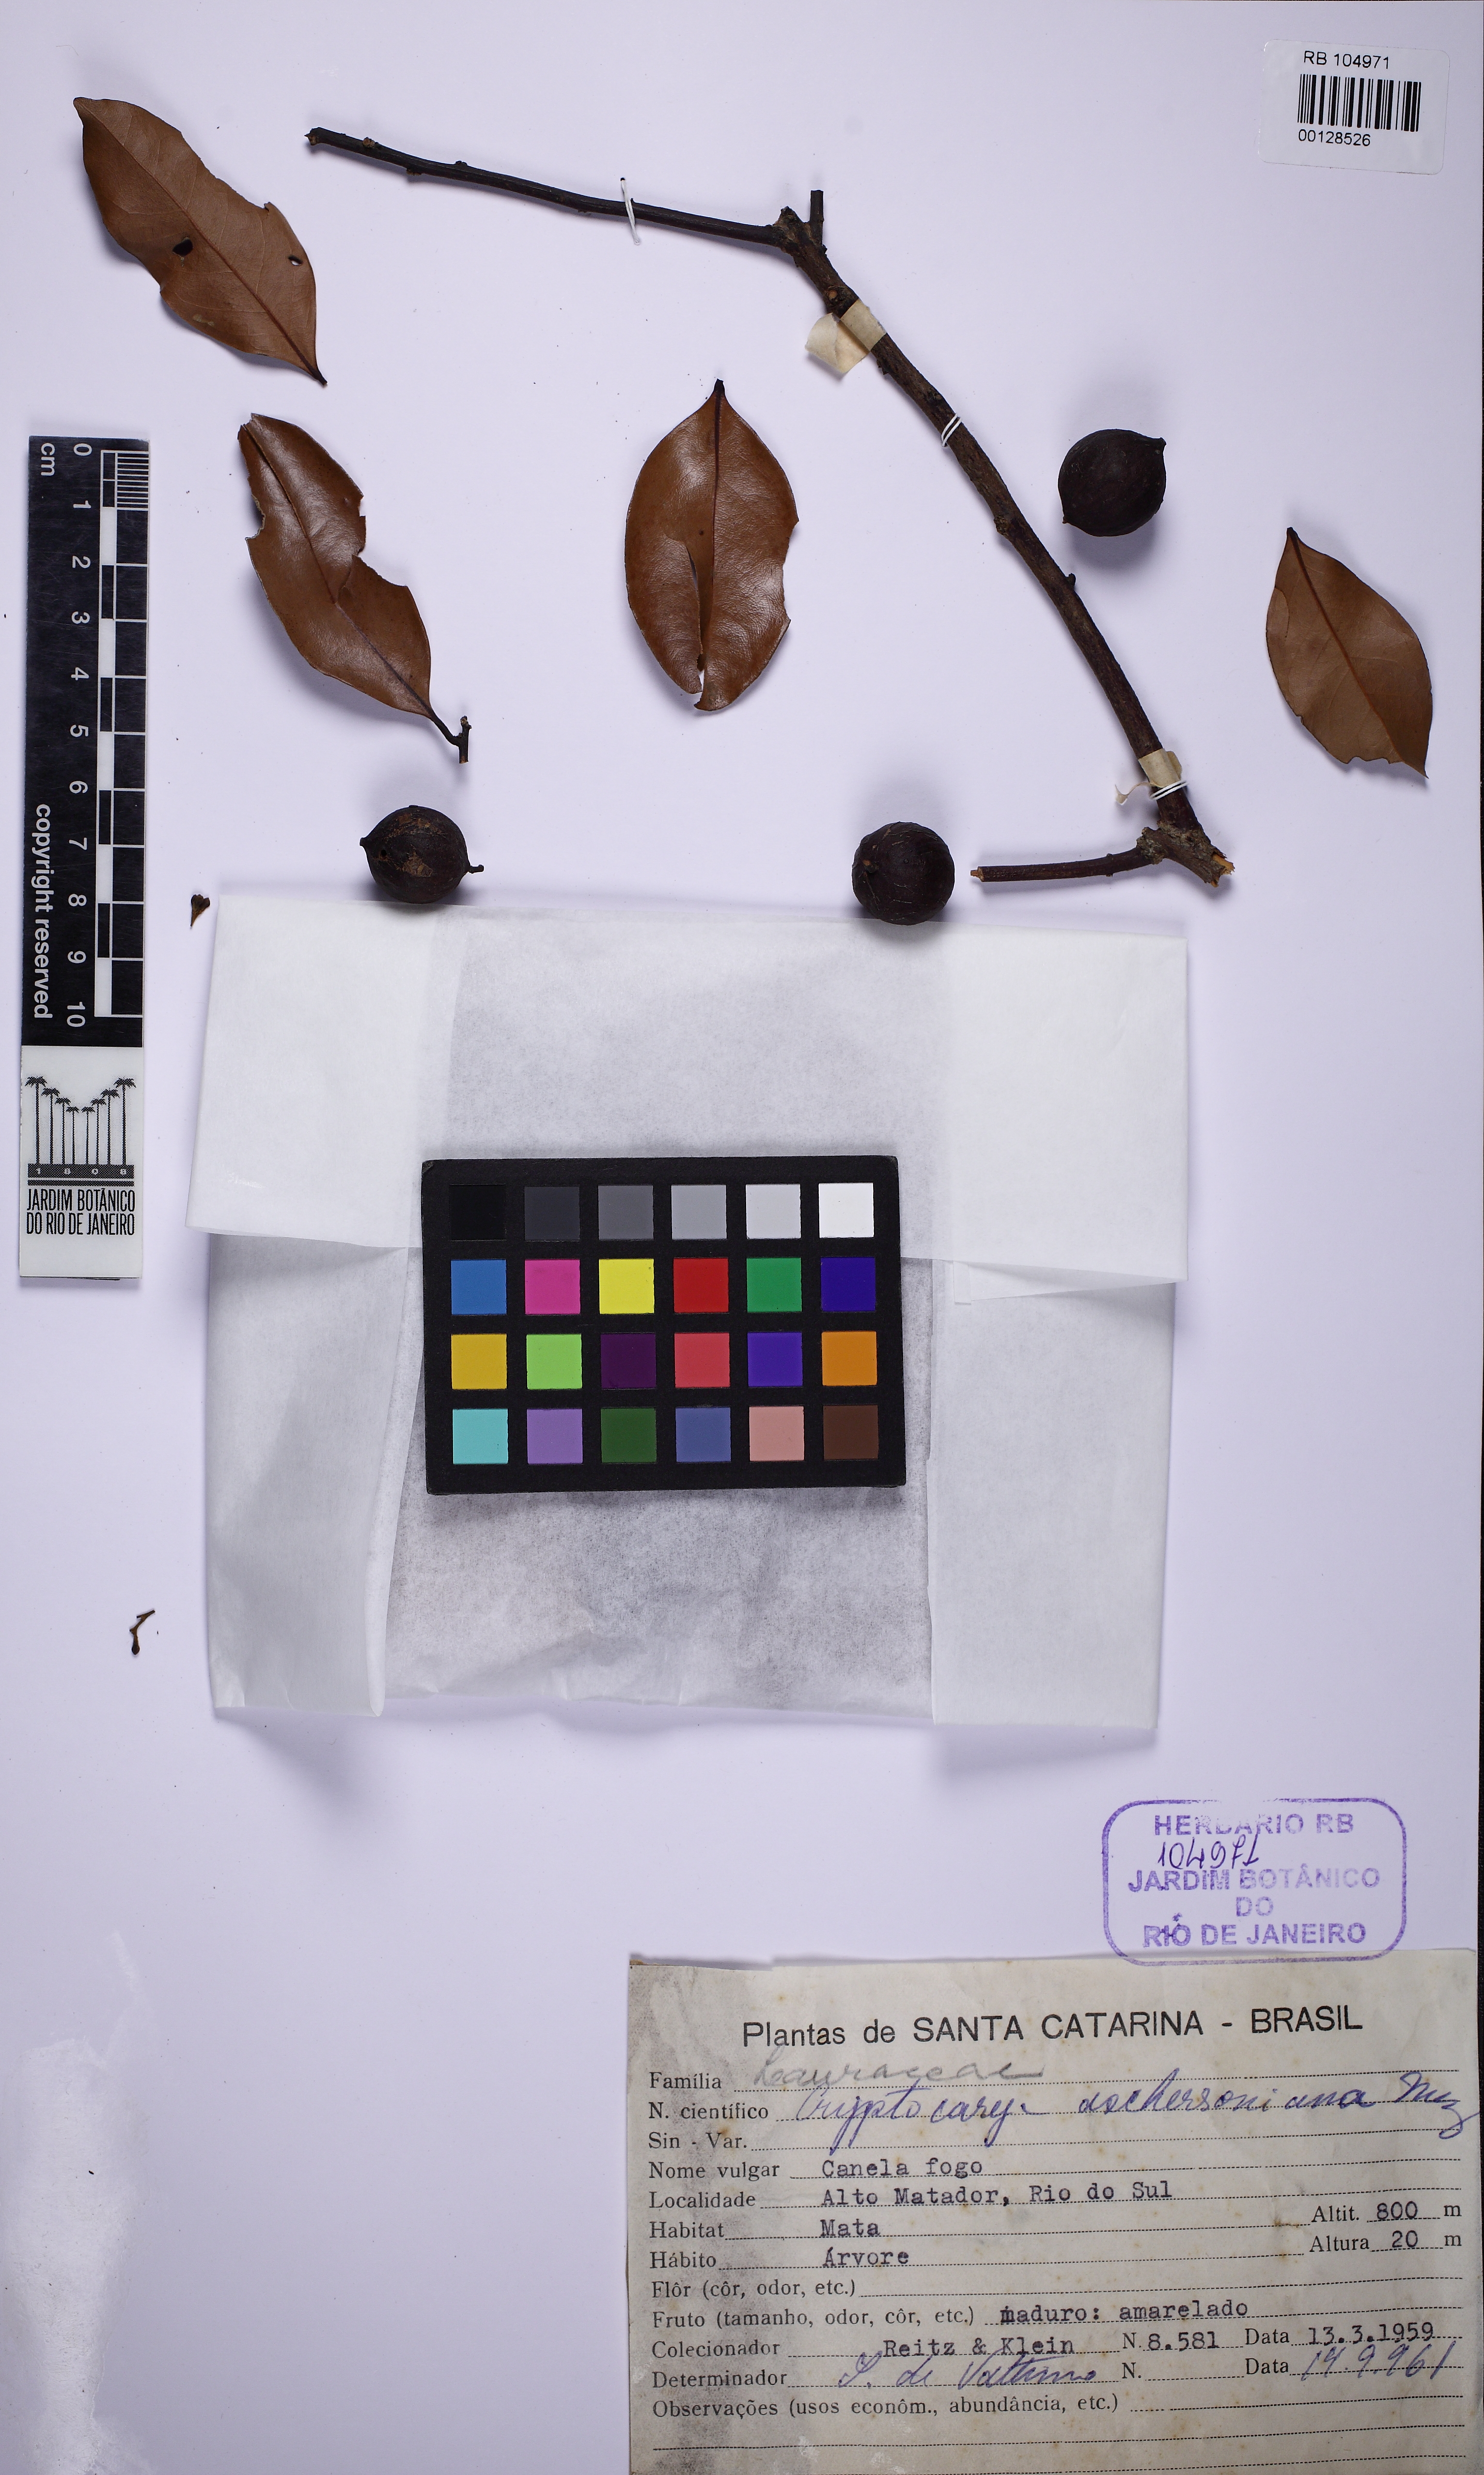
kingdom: Plantae
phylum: Tracheophyta
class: Magnoliopsida
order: Laurales
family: Lauraceae
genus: Cryptocarya
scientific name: Cryptocarya aschersoniana
